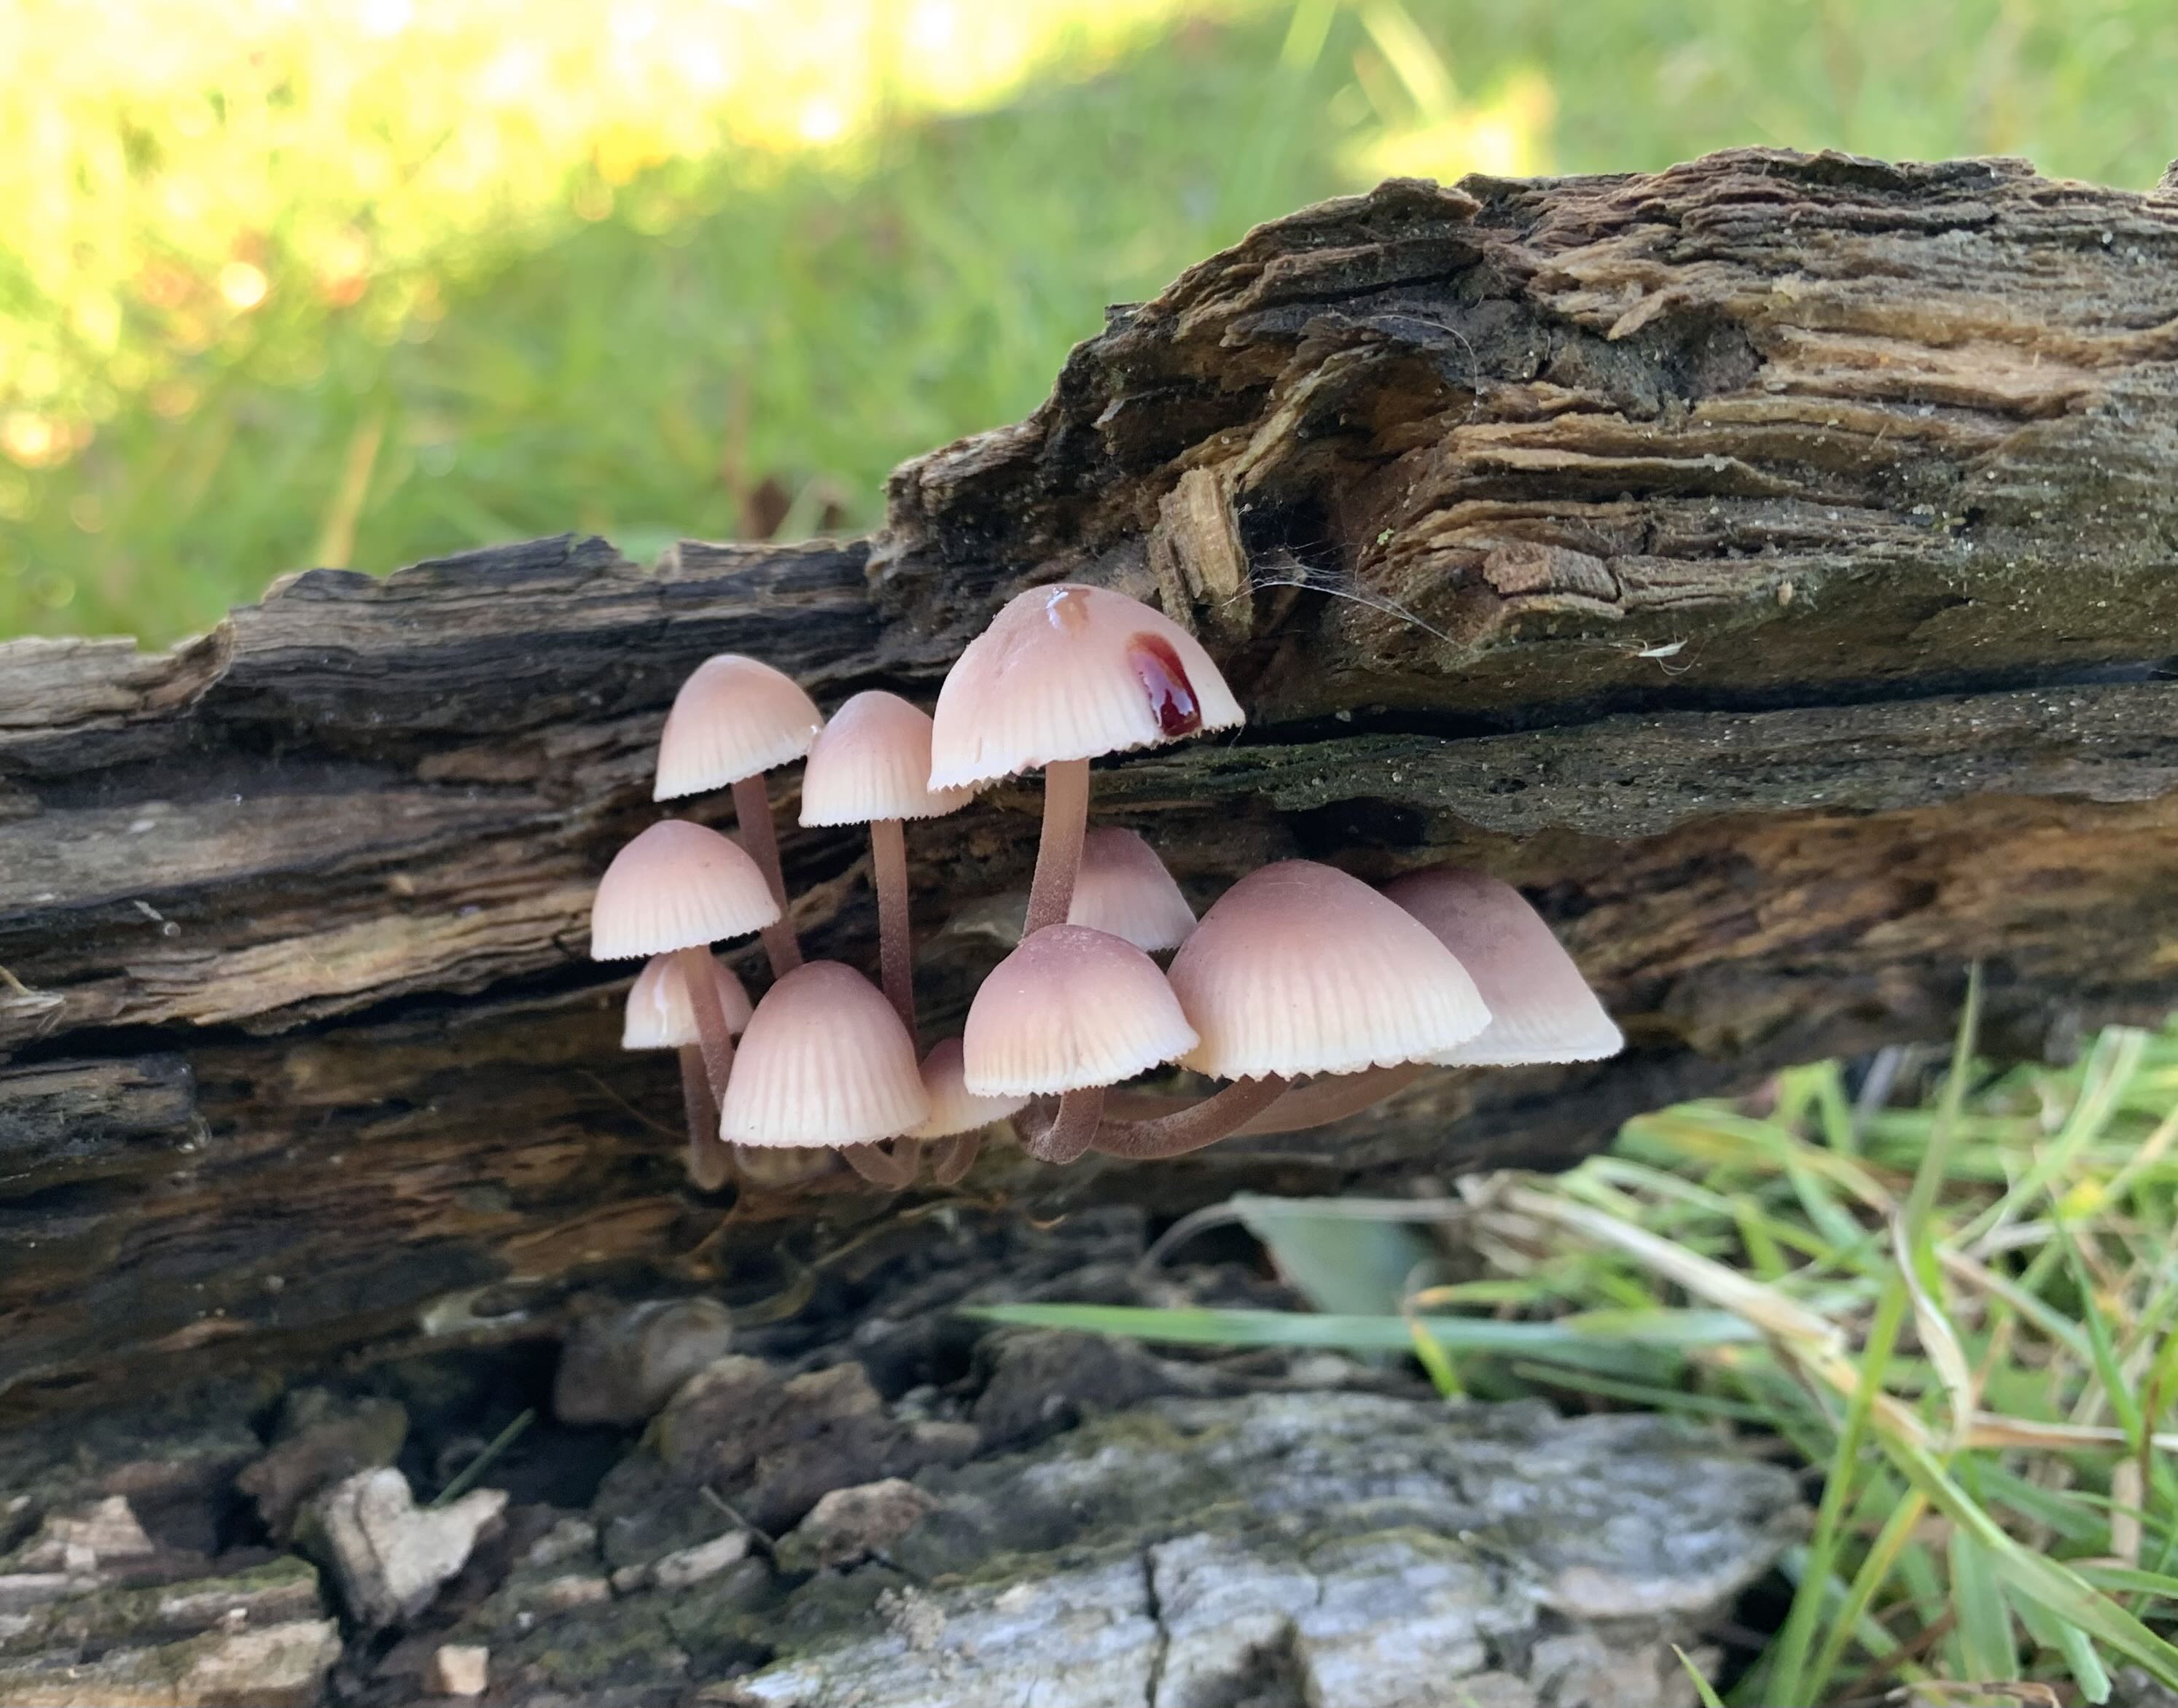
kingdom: Fungi
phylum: Basidiomycota
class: Agaricomycetes
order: Agaricales
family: Mycenaceae
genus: Mycena
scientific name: Mycena haematopus
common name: blødende huesvamp
